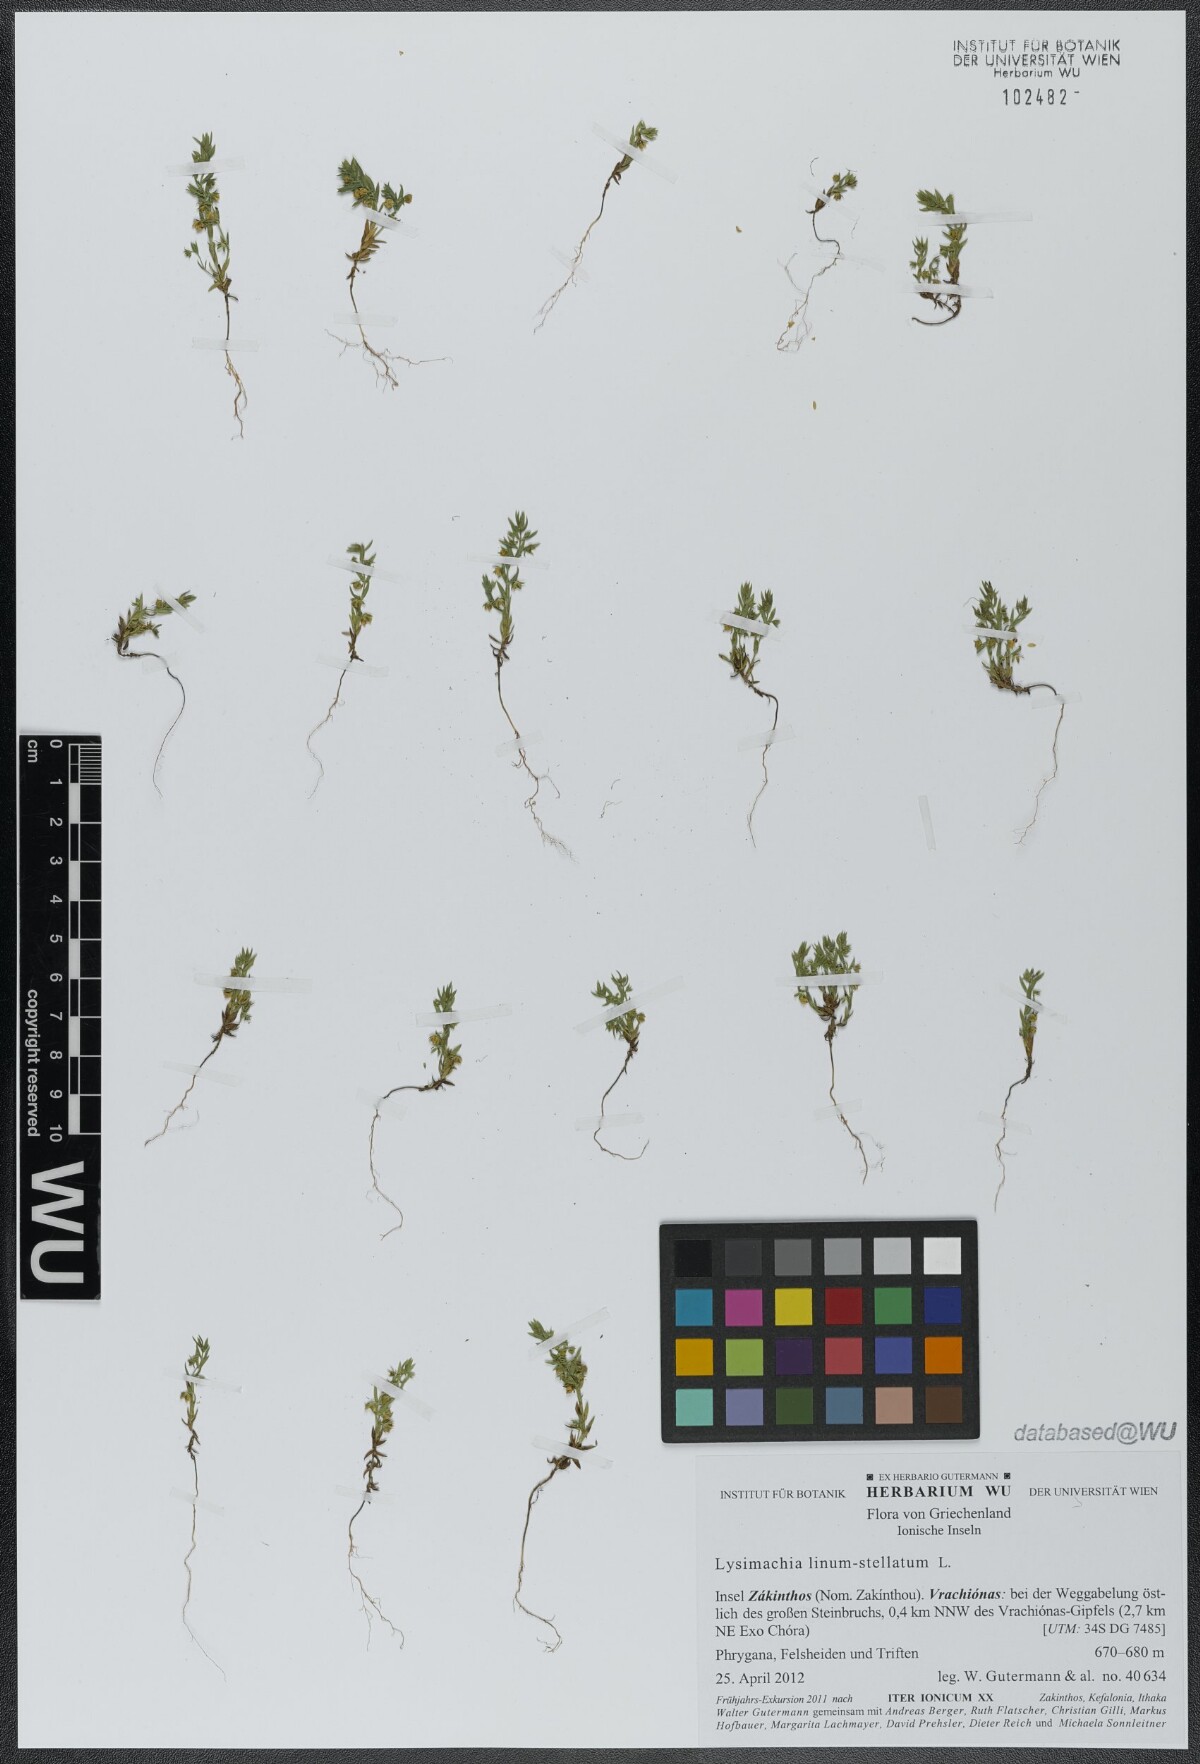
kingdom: Plantae
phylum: Tracheophyta
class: Magnoliopsida
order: Ericales
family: Primulaceae
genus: Lysimachia
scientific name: Lysimachia linum-stellatum
